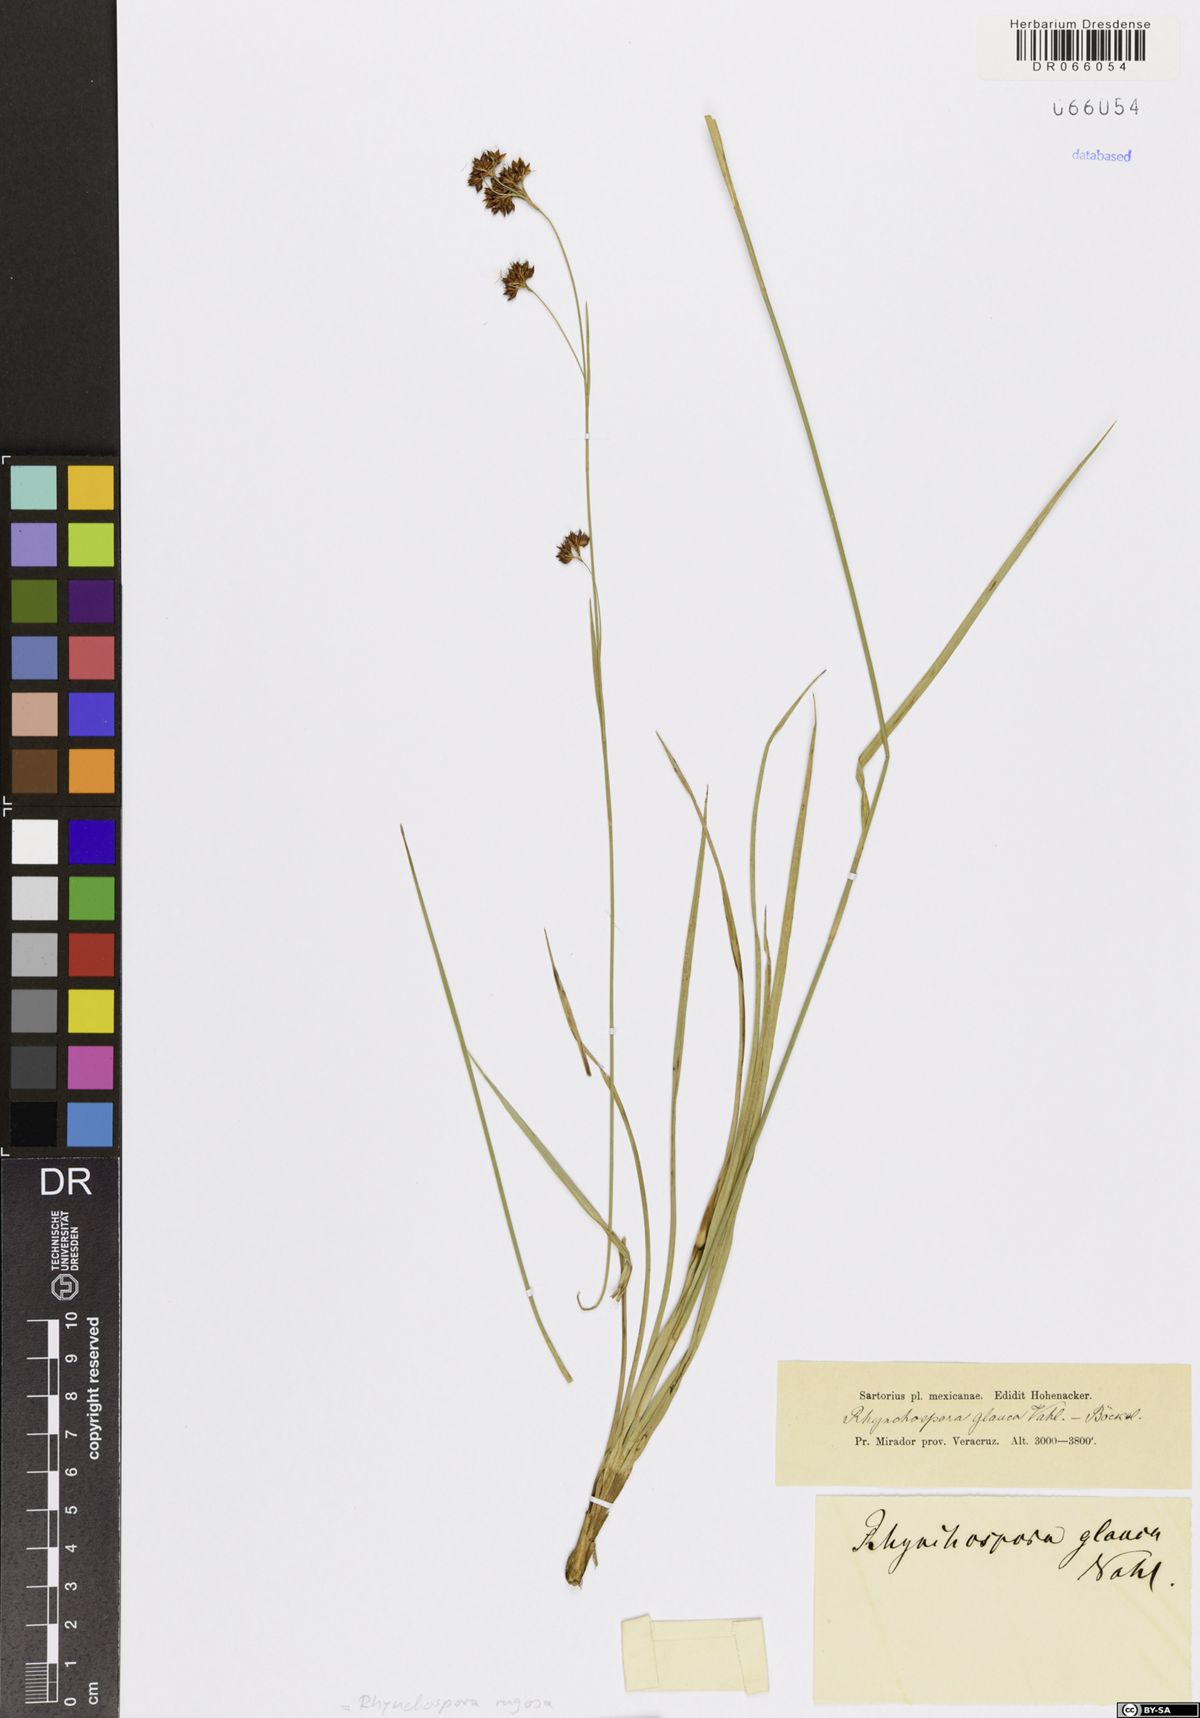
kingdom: Plantae
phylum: Tracheophyta
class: Liliopsida
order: Poales
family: Cyperaceae
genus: Rhynchospora
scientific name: Rhynchospora rugosa
